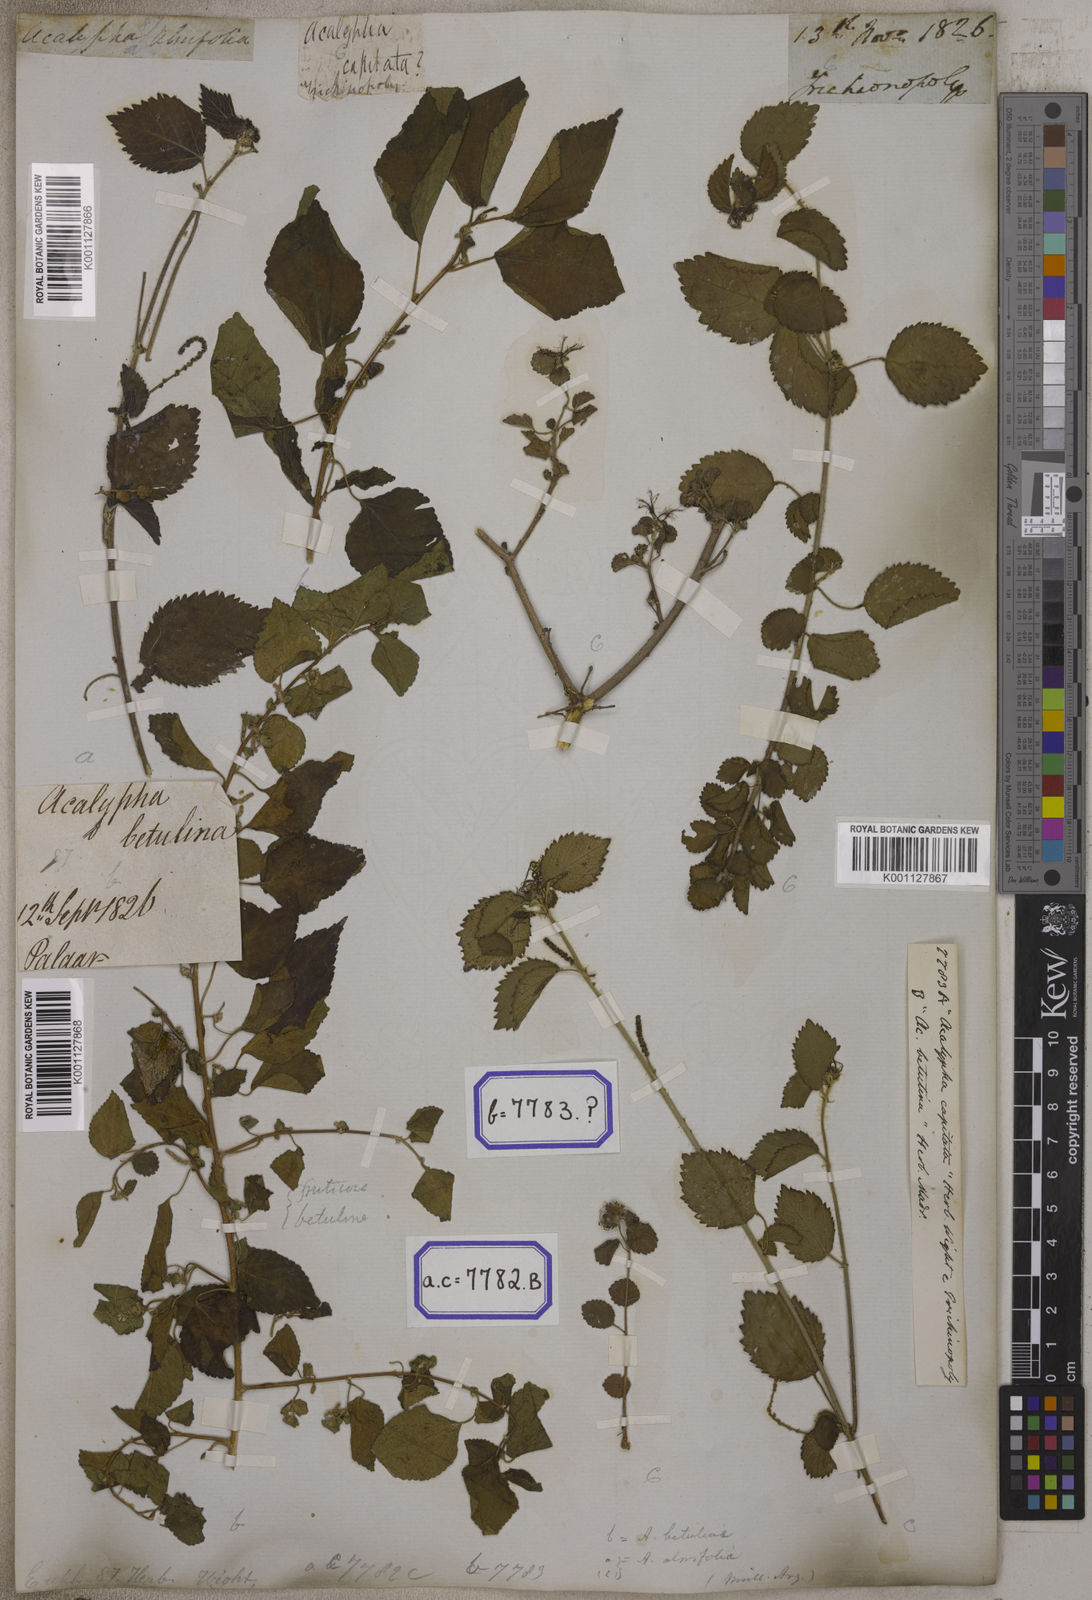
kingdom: Plantae
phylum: Tracheophyta
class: Magnoliopsida
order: Malpighiales
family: Euphorbiaceae
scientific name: Euphorbiaceae
